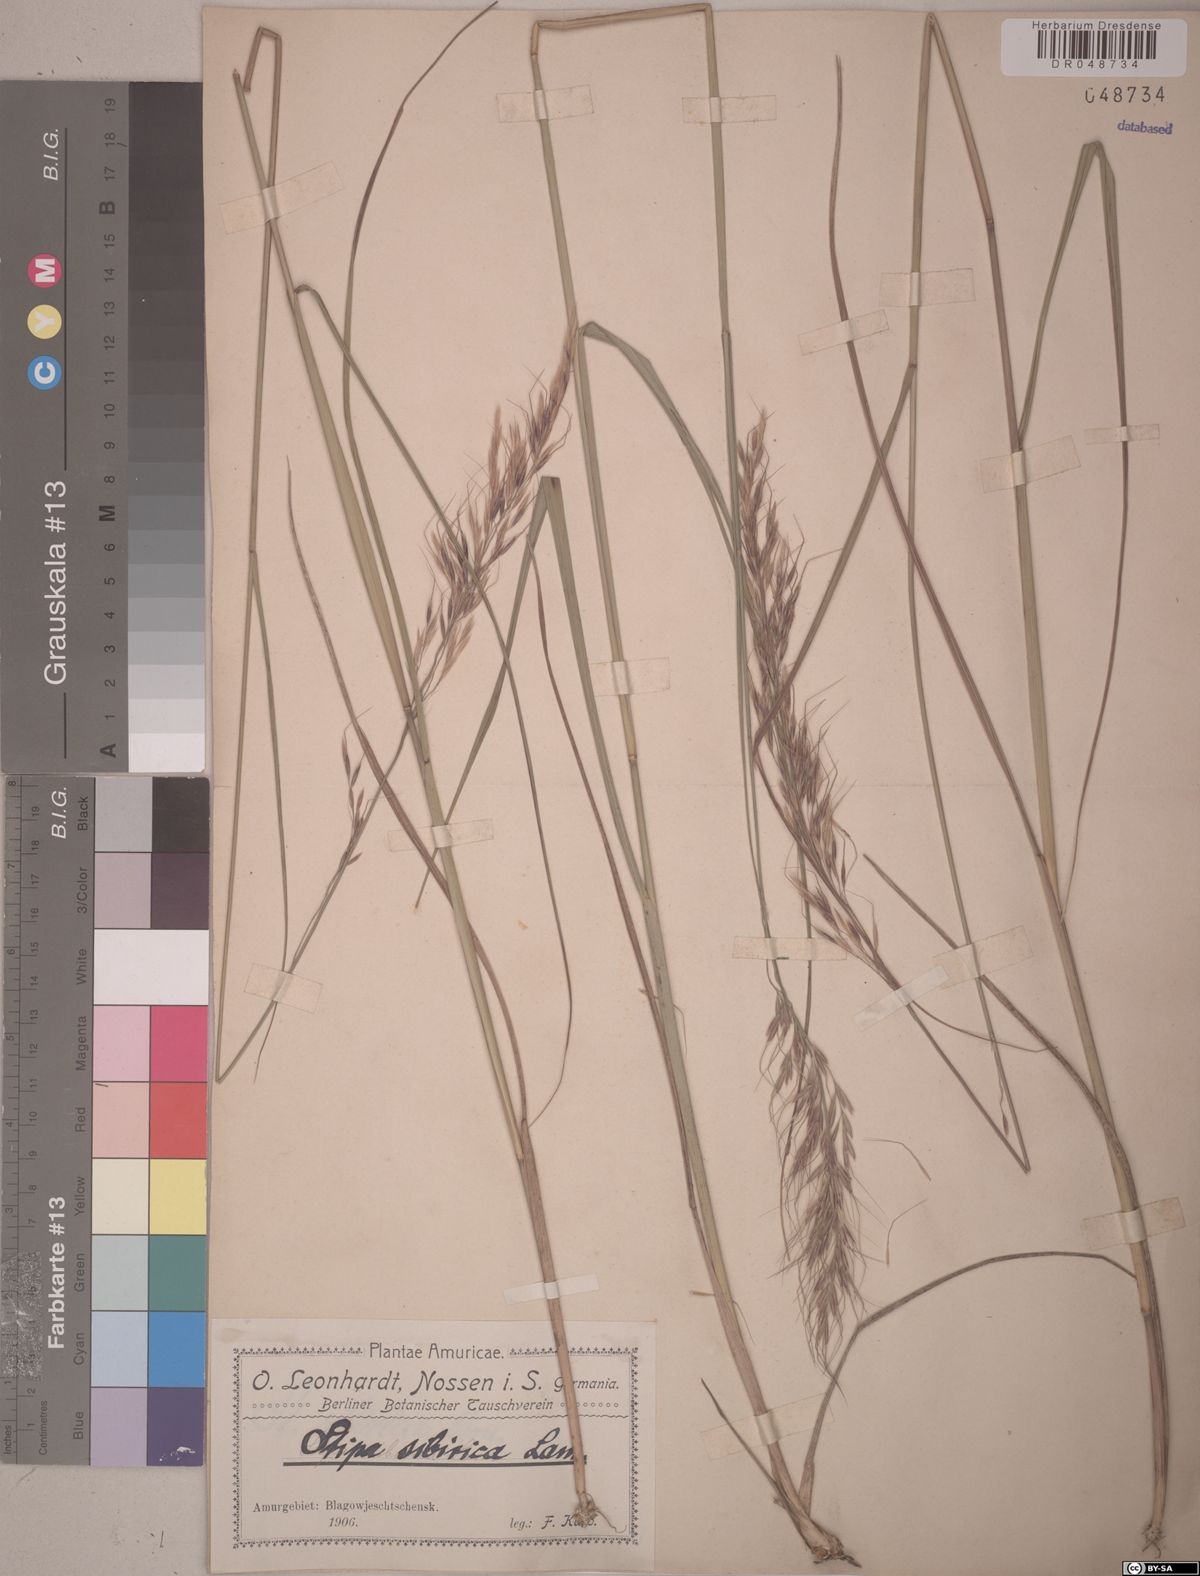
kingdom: Plantae
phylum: Tracheophyta
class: Liliopsida
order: Poales
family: Poaceae
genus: Achnatherum
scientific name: Achnatherum sibiricum
